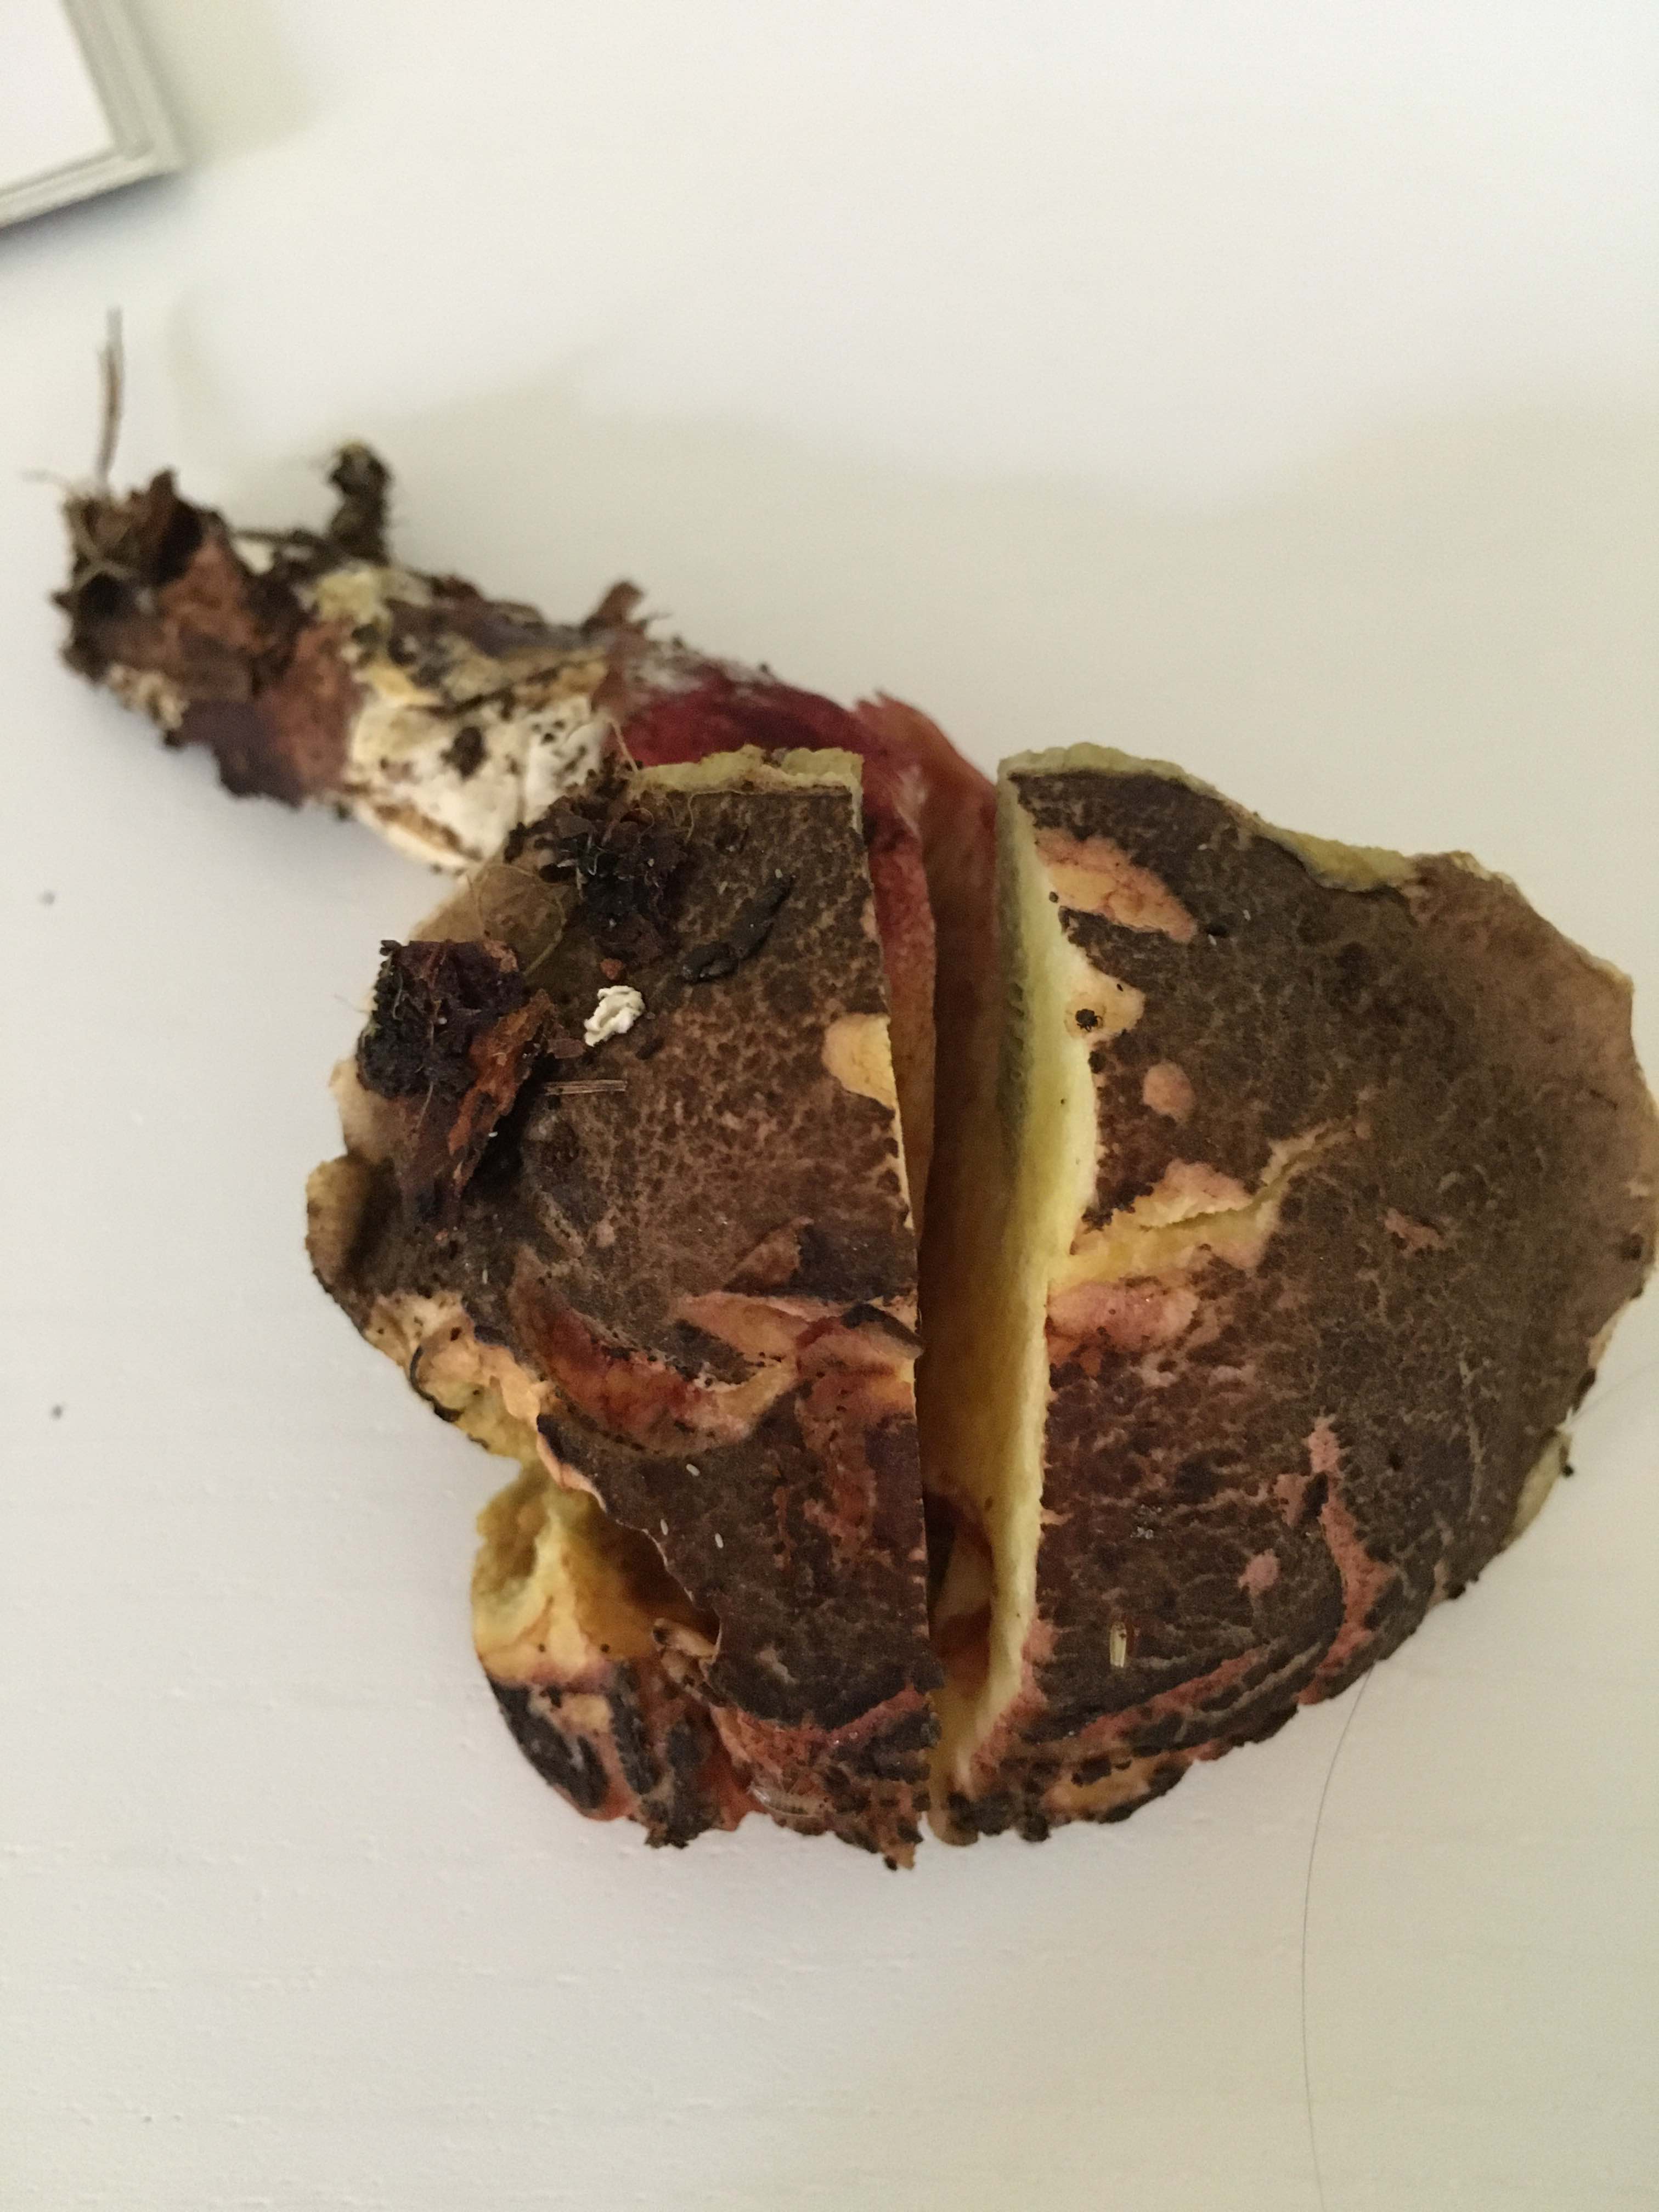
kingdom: Fungi
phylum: Basidiomycota
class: Agaricomycetes
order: Boletales
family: Boletaceae
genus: Xerocomellus
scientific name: Xerocomellus chrysenteron
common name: rødsprukken rørhat
